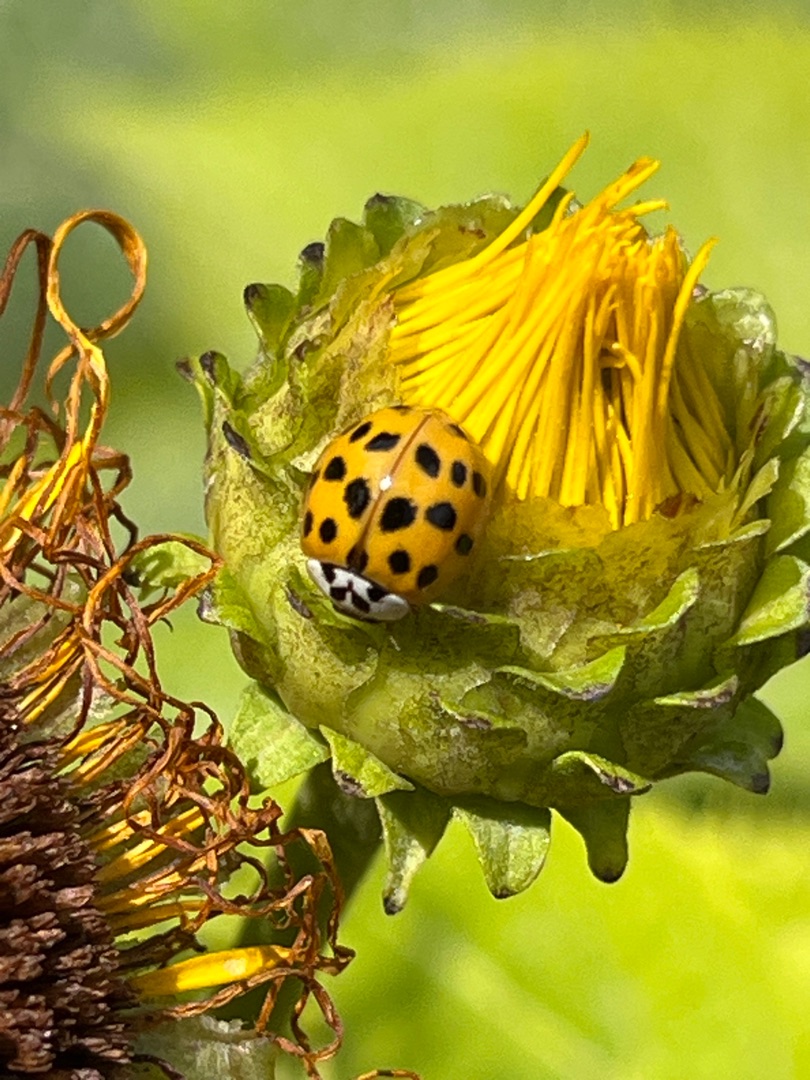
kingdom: Animalia
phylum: Arthropoda
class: Insecta
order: Coleoptera
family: Coccinellidae
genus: Harmonia
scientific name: Harmonia axyridis
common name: Harlekinmariehøne
